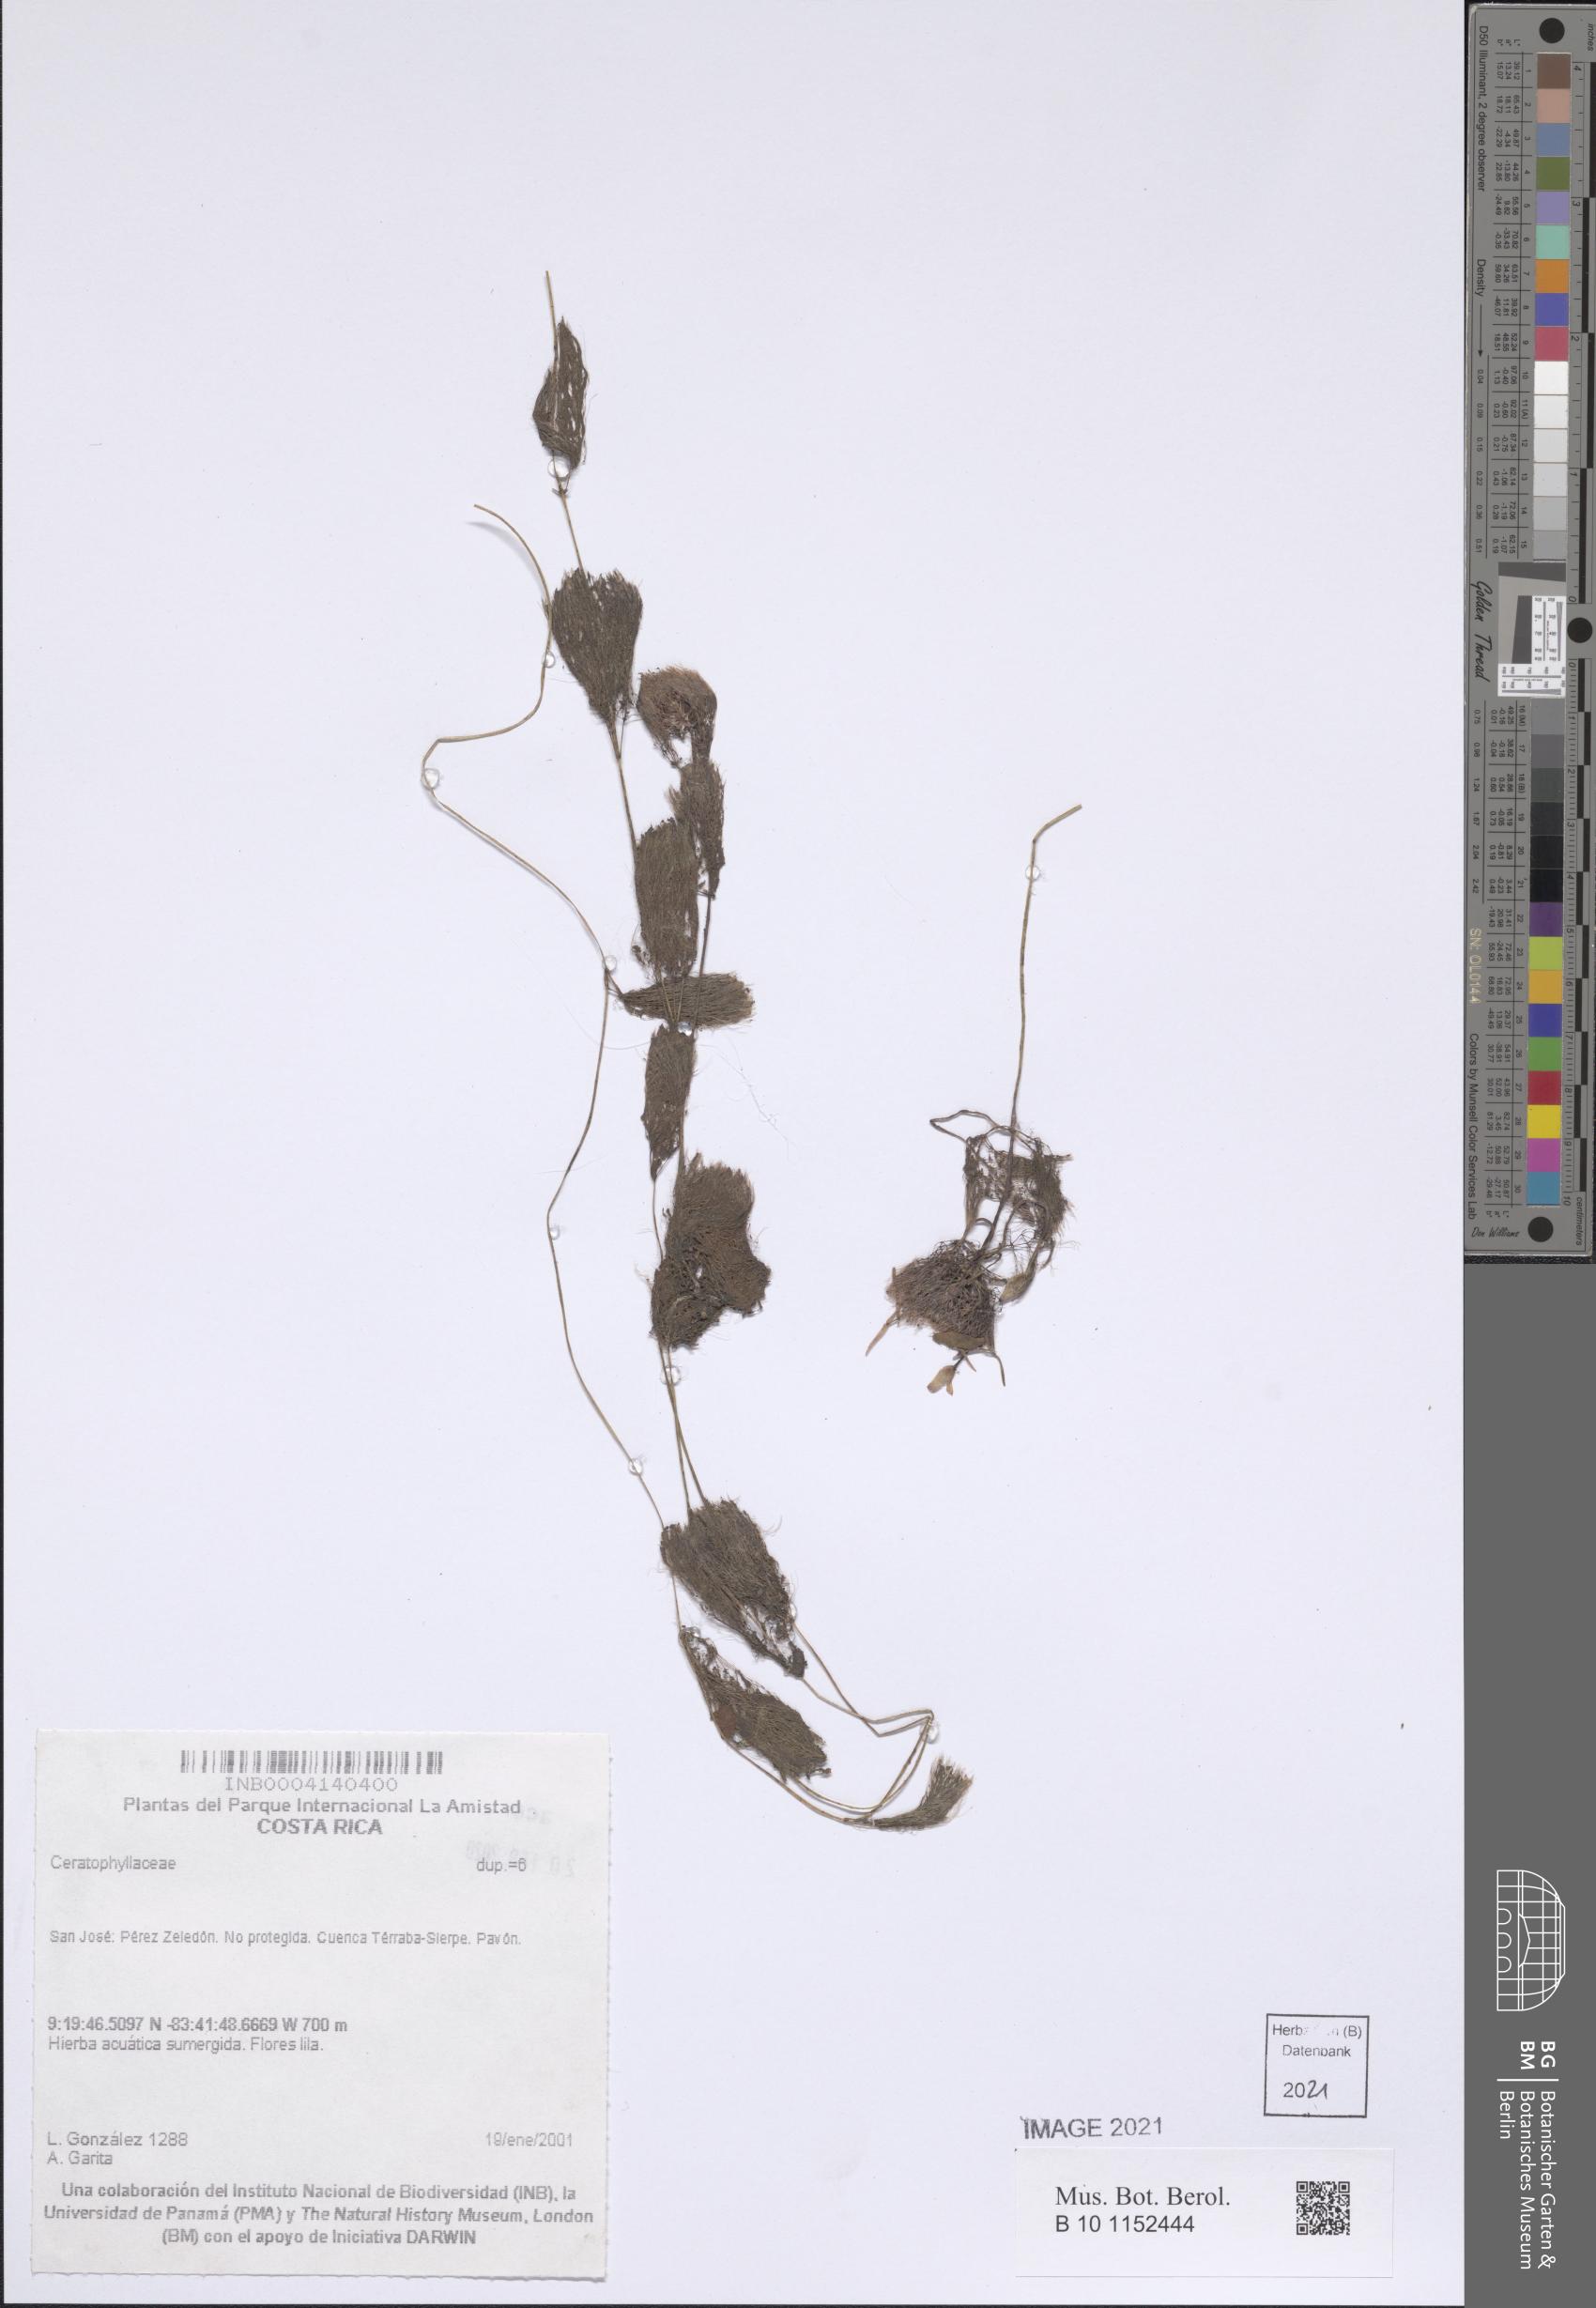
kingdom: Plantae
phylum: Tracheophyta
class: Magnoliopsida
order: Nymphaeales
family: Cabombaceae
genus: Cabomba
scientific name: Cabomba furcata
